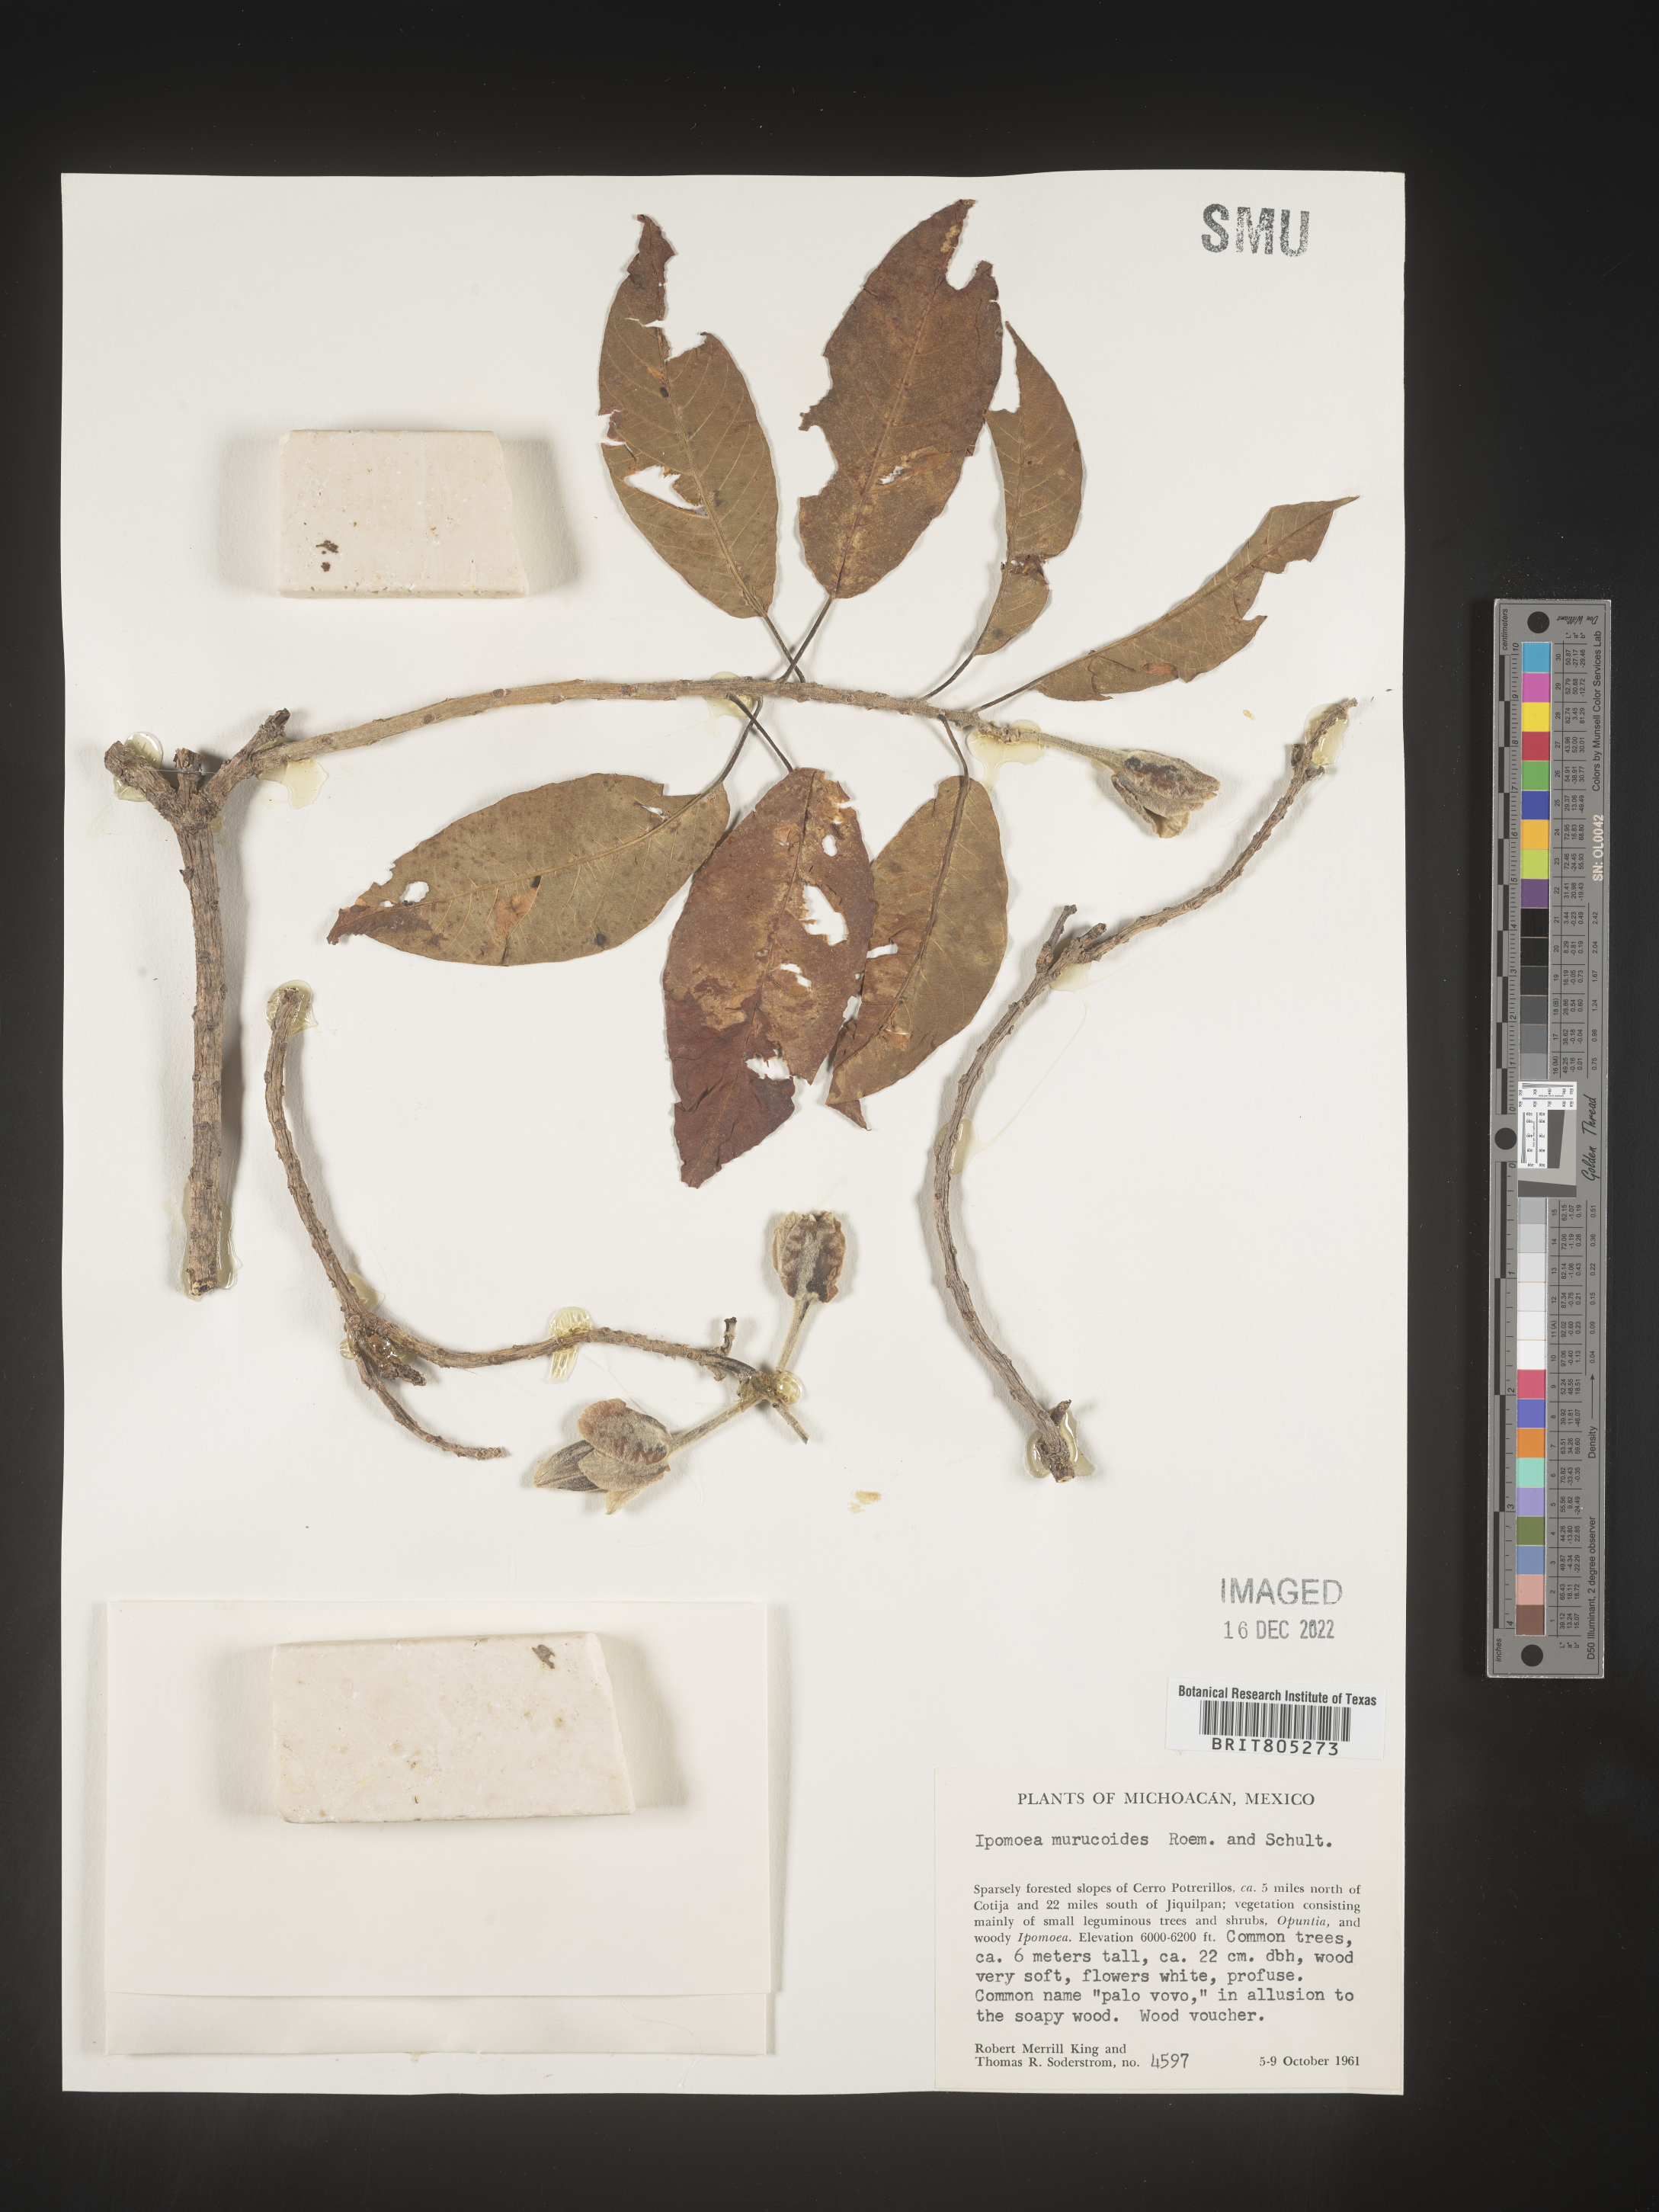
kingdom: Plantae
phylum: Tracheophyta
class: Magnoliopsida
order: Solanales
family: Convolvulaceae
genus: Ipomoea
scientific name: Ipomoea
